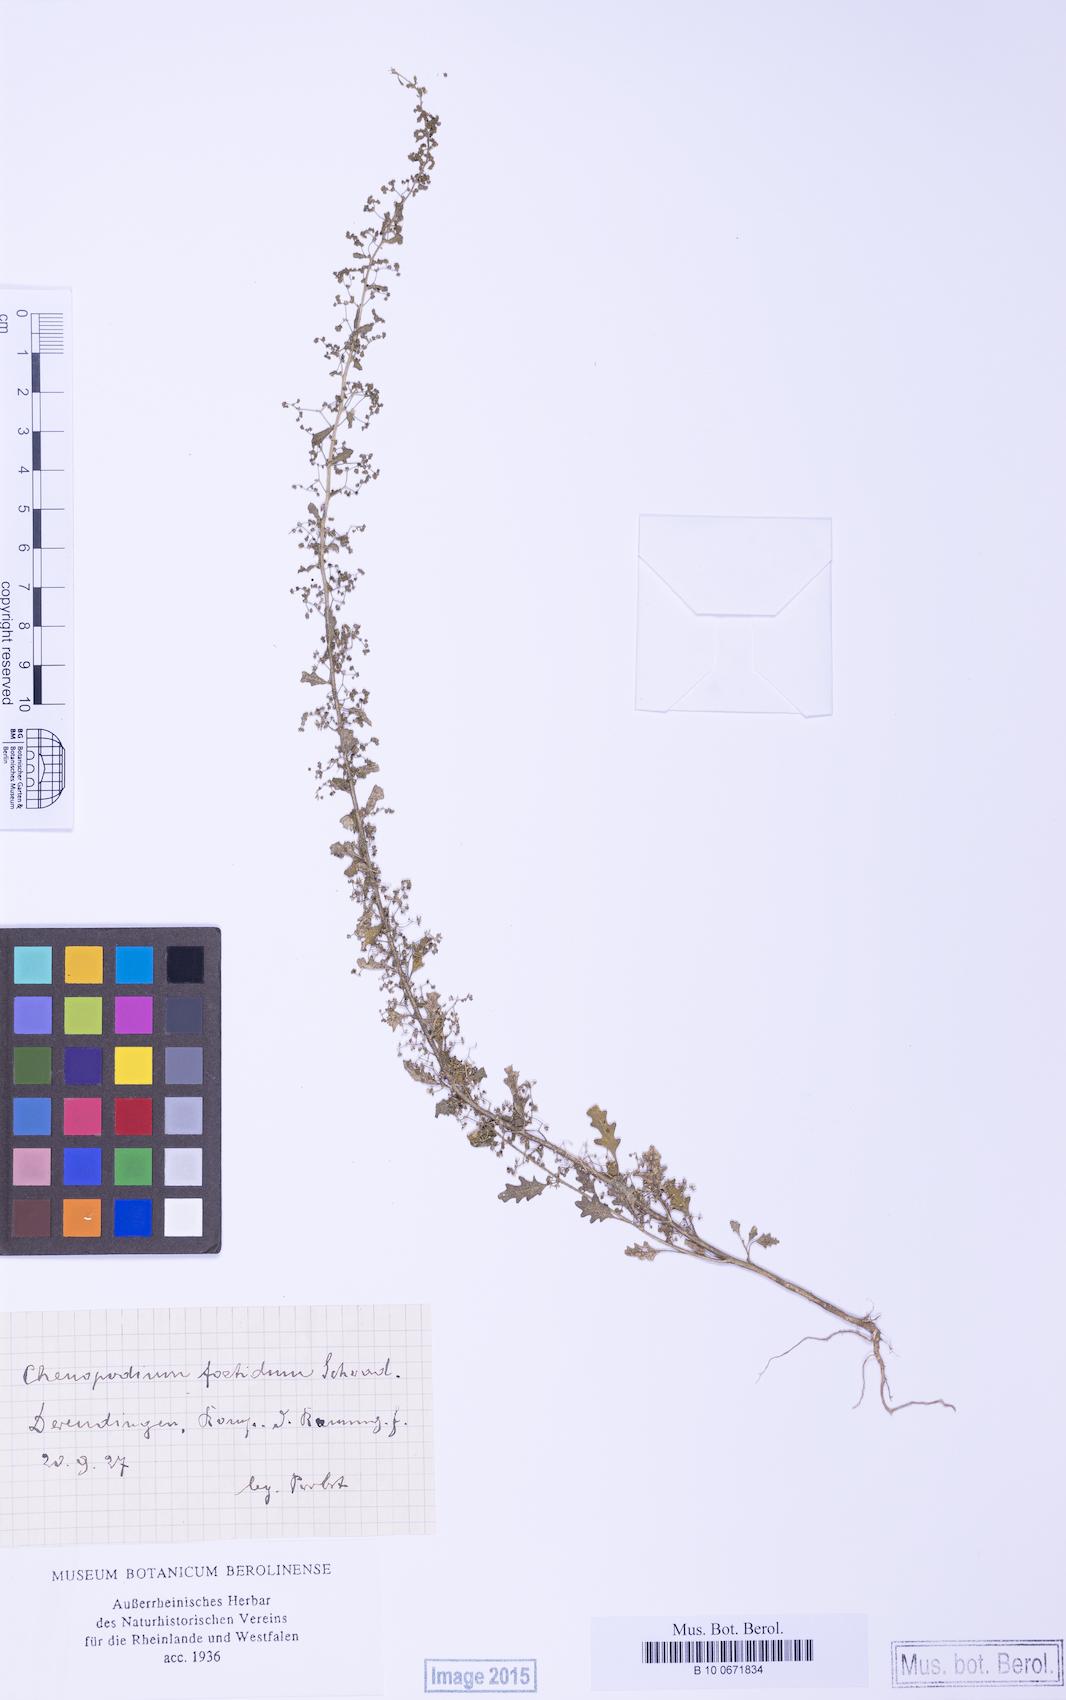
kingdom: Plantae
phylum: Tracheophyta
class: Magnoliopsida
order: Caryophyllales
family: Amaranthaceae
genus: Dysphania
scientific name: Dysphania schraderiana
